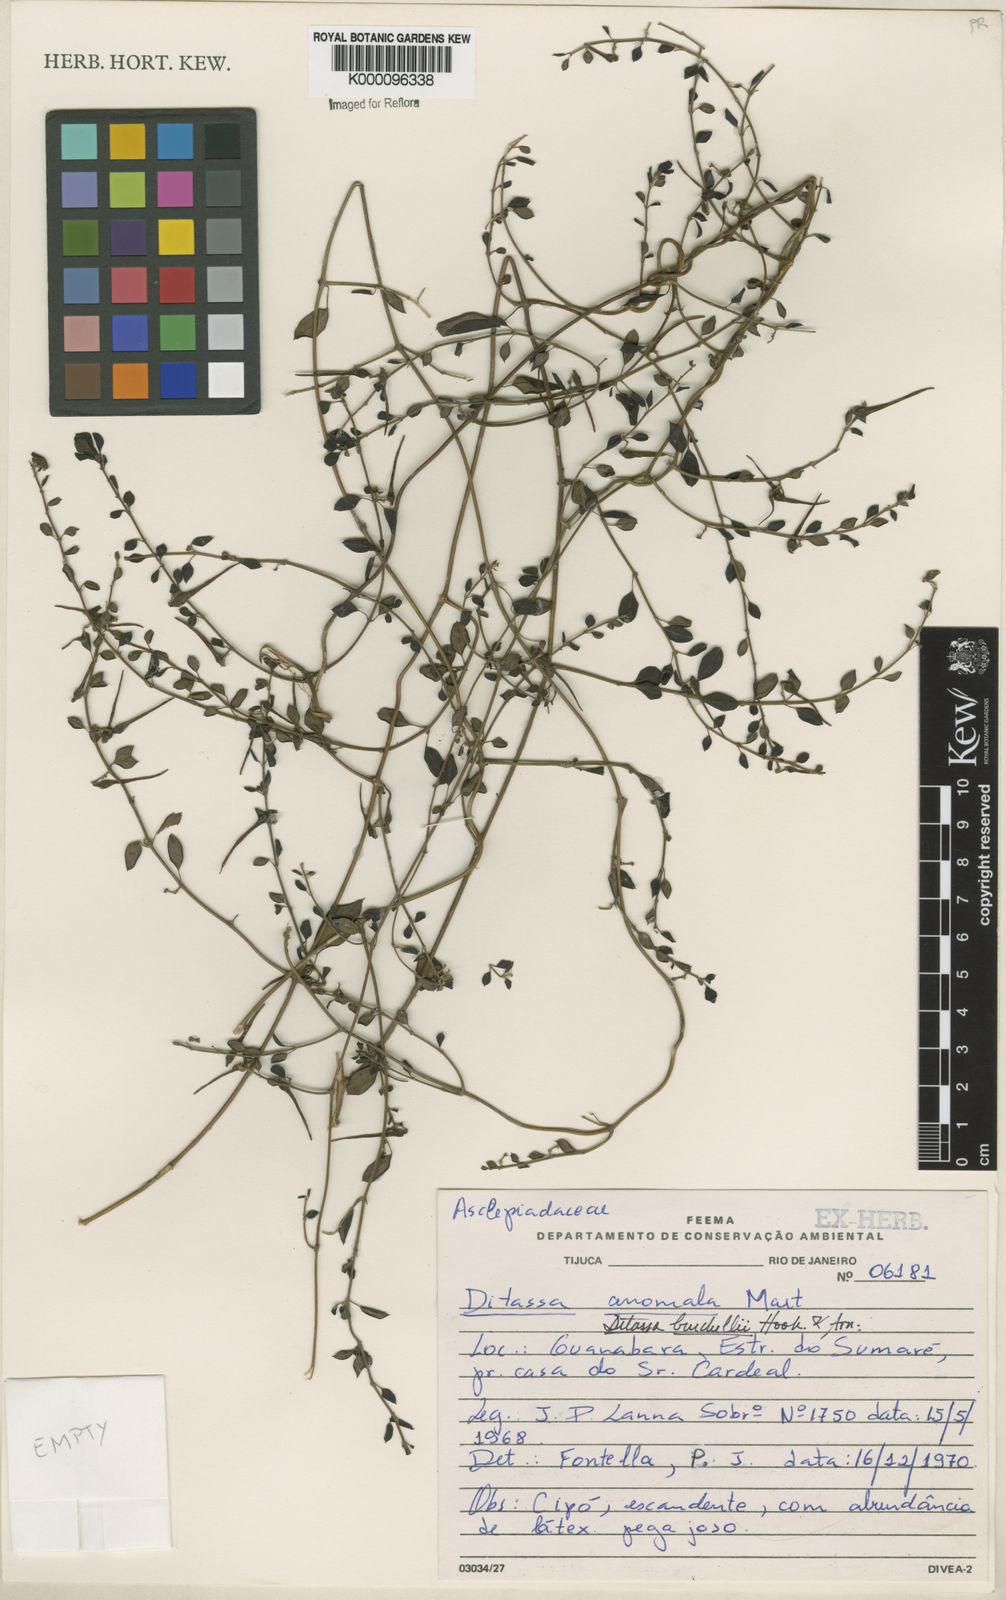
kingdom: Plantae
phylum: Tracheophyta
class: Magnoliopsida
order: Gentianales
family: Apocynaceae
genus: Metastelma
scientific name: Metastelma burchellii
